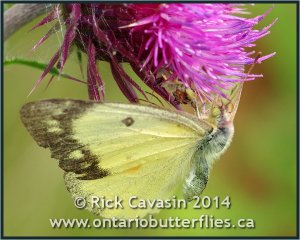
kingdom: Animalia
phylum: Arthropoda
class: Insecta
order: Lepidoptera
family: Pieridae
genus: Colias
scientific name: Colias philodice
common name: Clouded Sulphur
